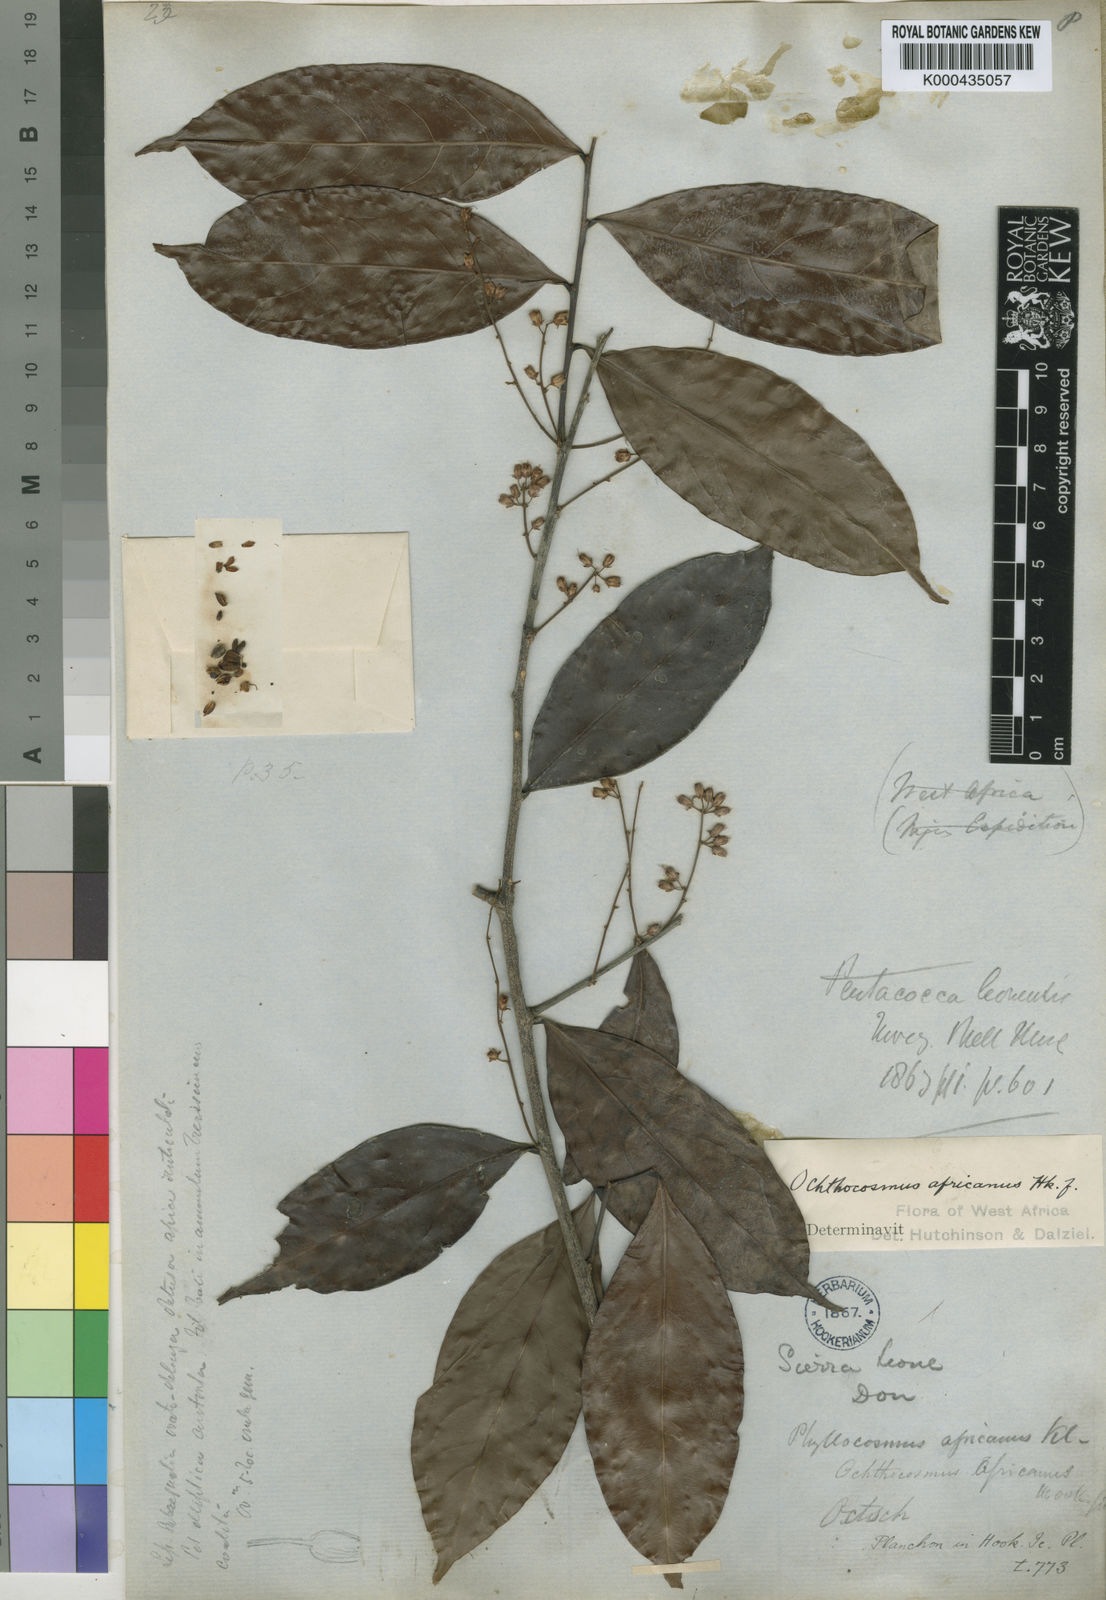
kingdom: Plantae
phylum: Tracheophyta
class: Magnoliopsida
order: Malpighiales
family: Ixonanthaceae
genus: Phyllocosmus
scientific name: Phyllocosmus africanus
